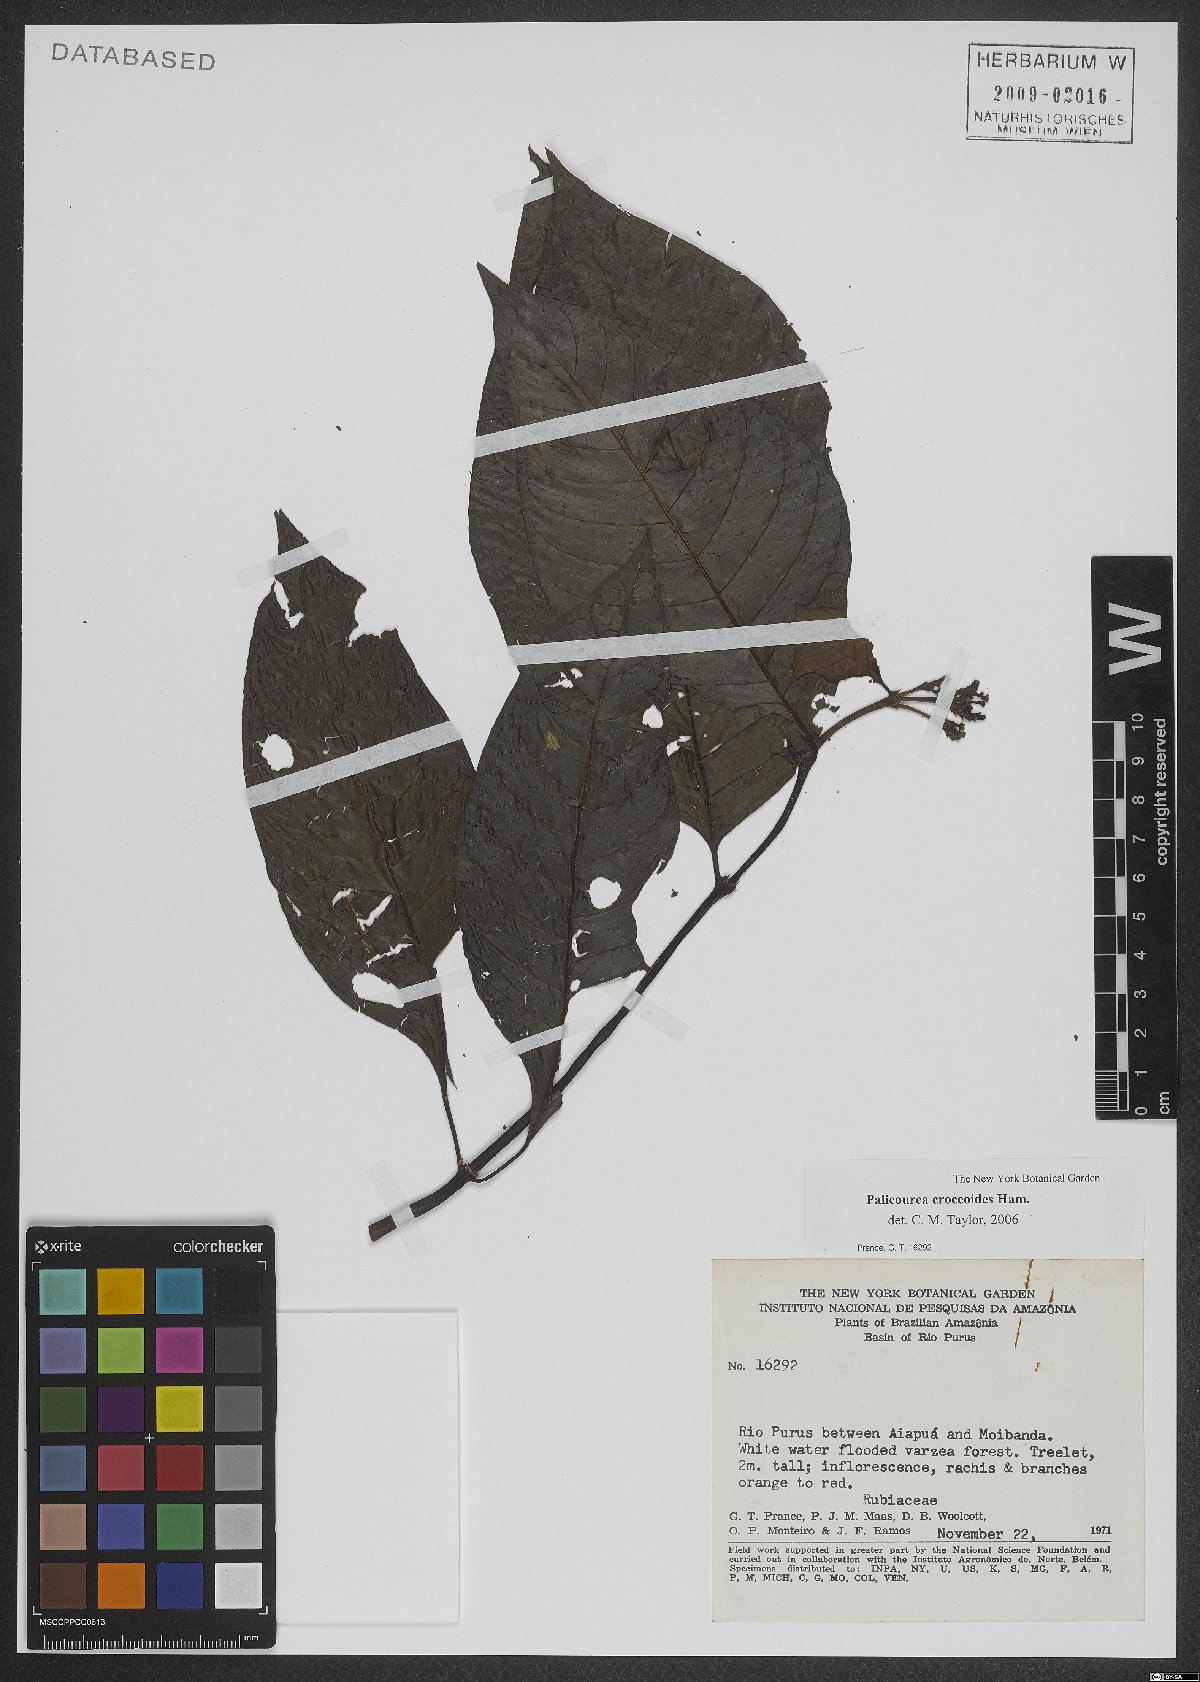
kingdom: Plantae
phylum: Tracheophyta
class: Magnoliopsida
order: Gentianales
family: Rubiaceae
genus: Palicourea
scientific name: Palicourea croceoides
